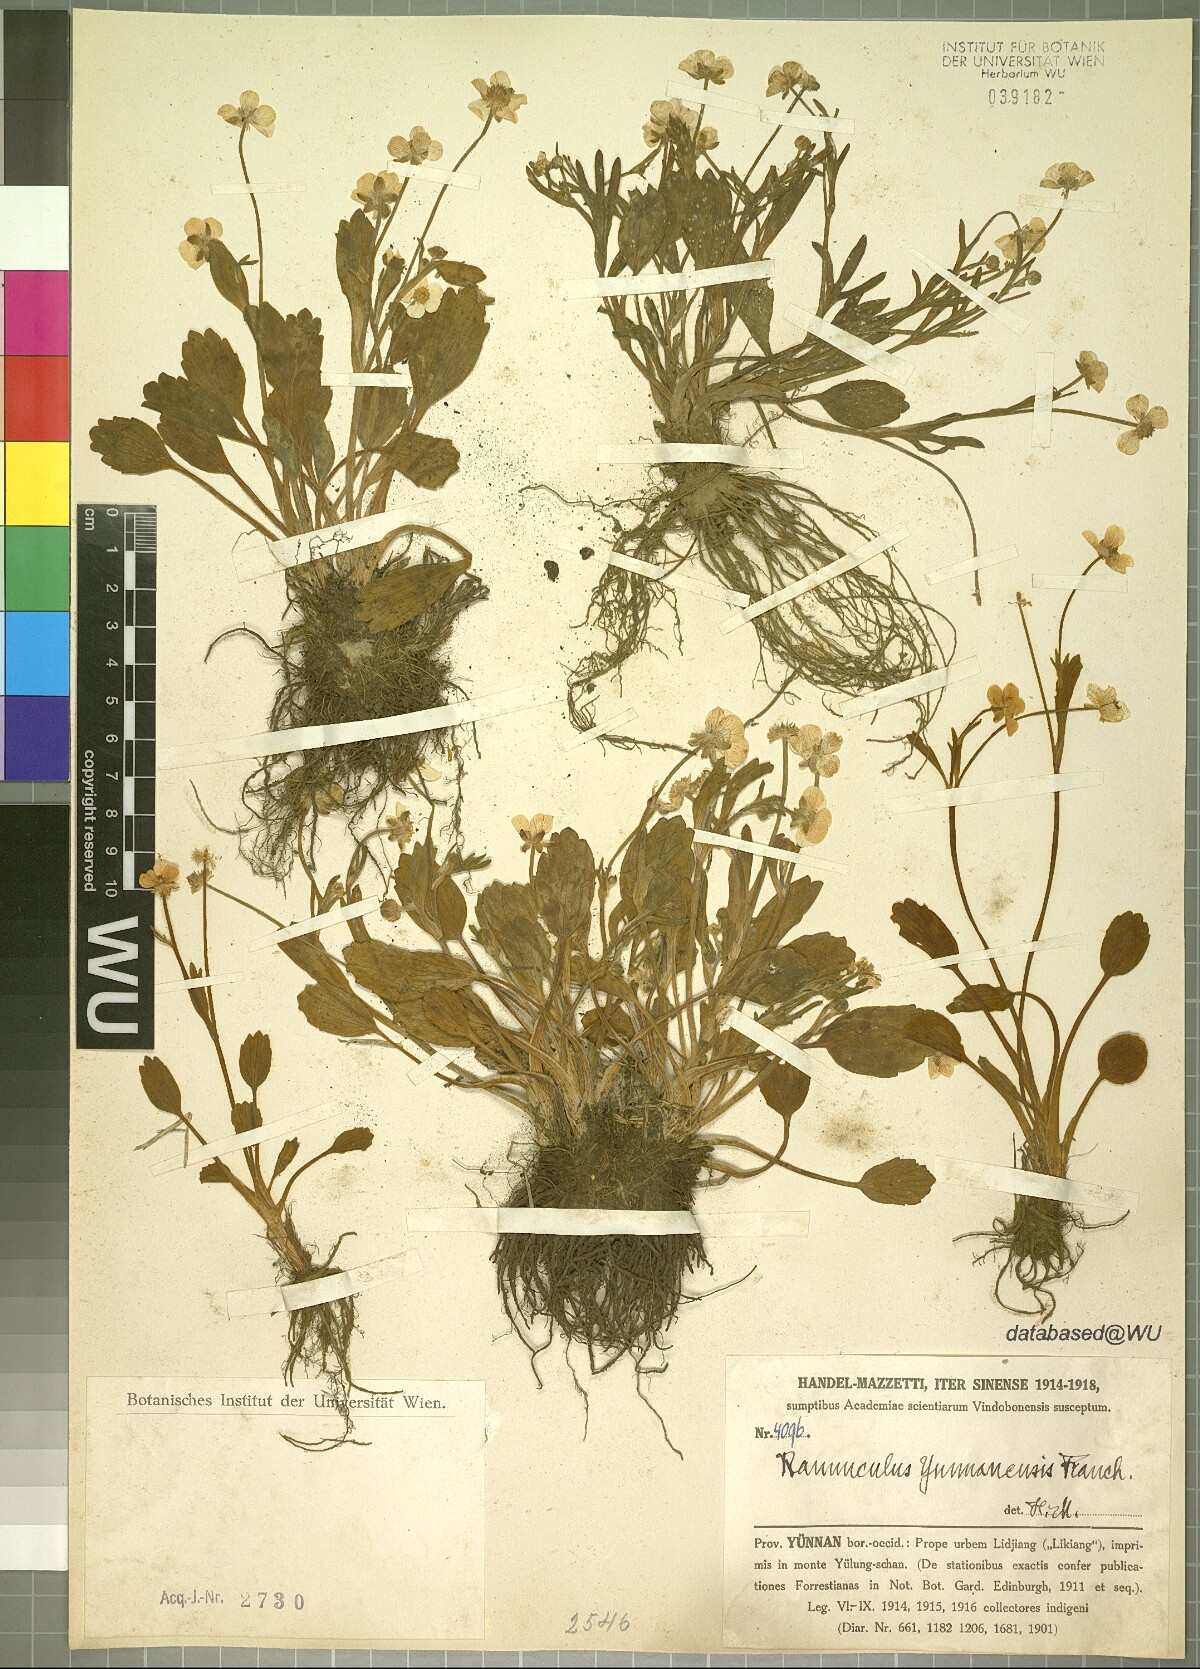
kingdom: Plantae
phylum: Tracheophyta
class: Magnoliopsida
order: Ranunculales
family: Ranunculaceae
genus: Ranunculus
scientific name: Ranunculus yunnanensis
